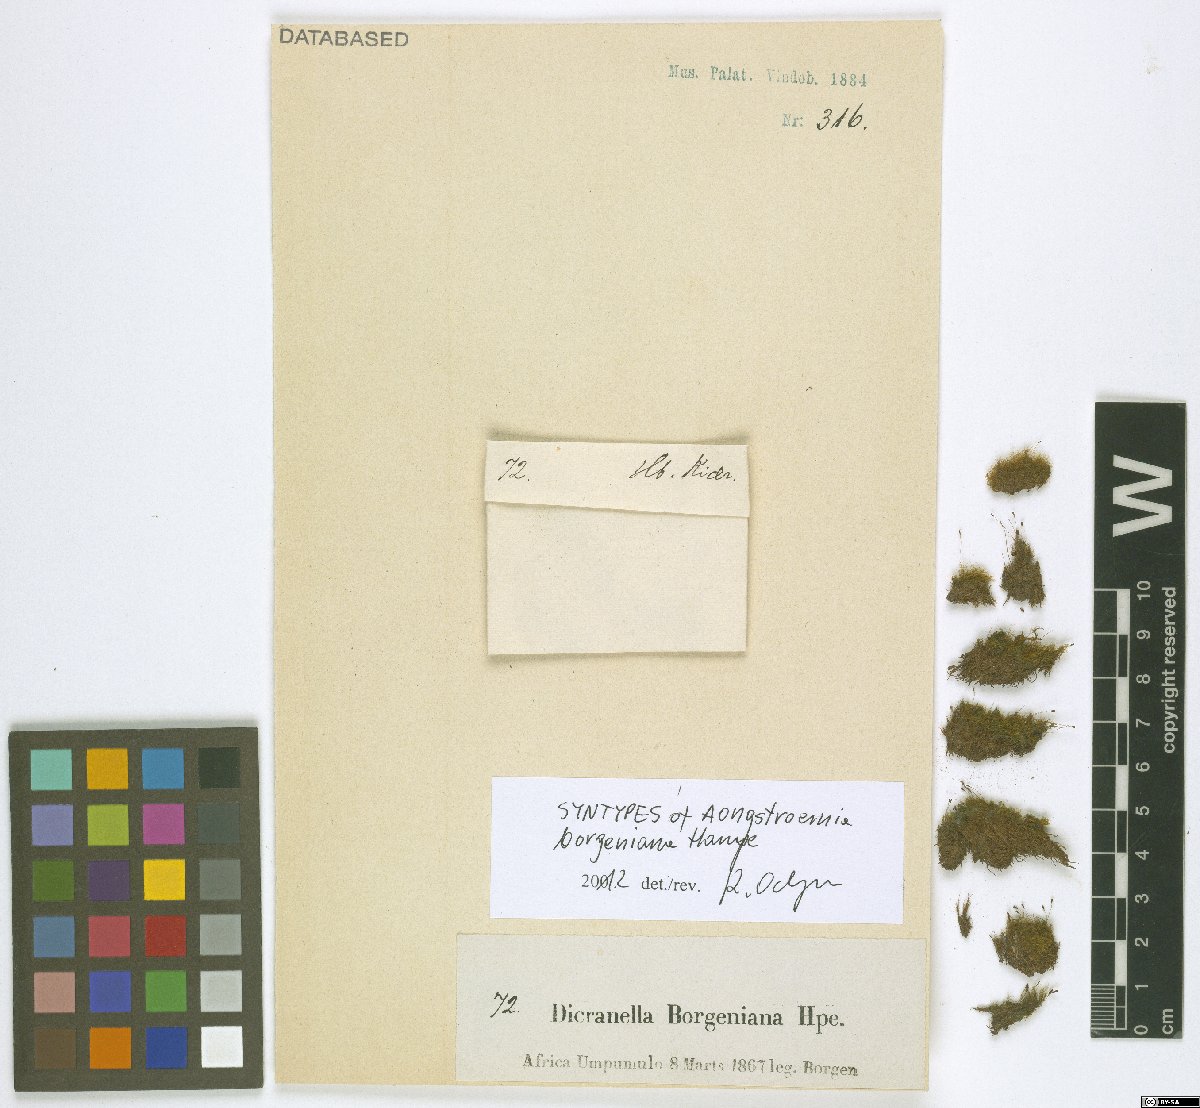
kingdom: Plantae
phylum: Bryophyta
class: Bryopsida
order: Dicranales
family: Dicranellaceae
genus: Dicranella
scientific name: Dicranella subsubulata
